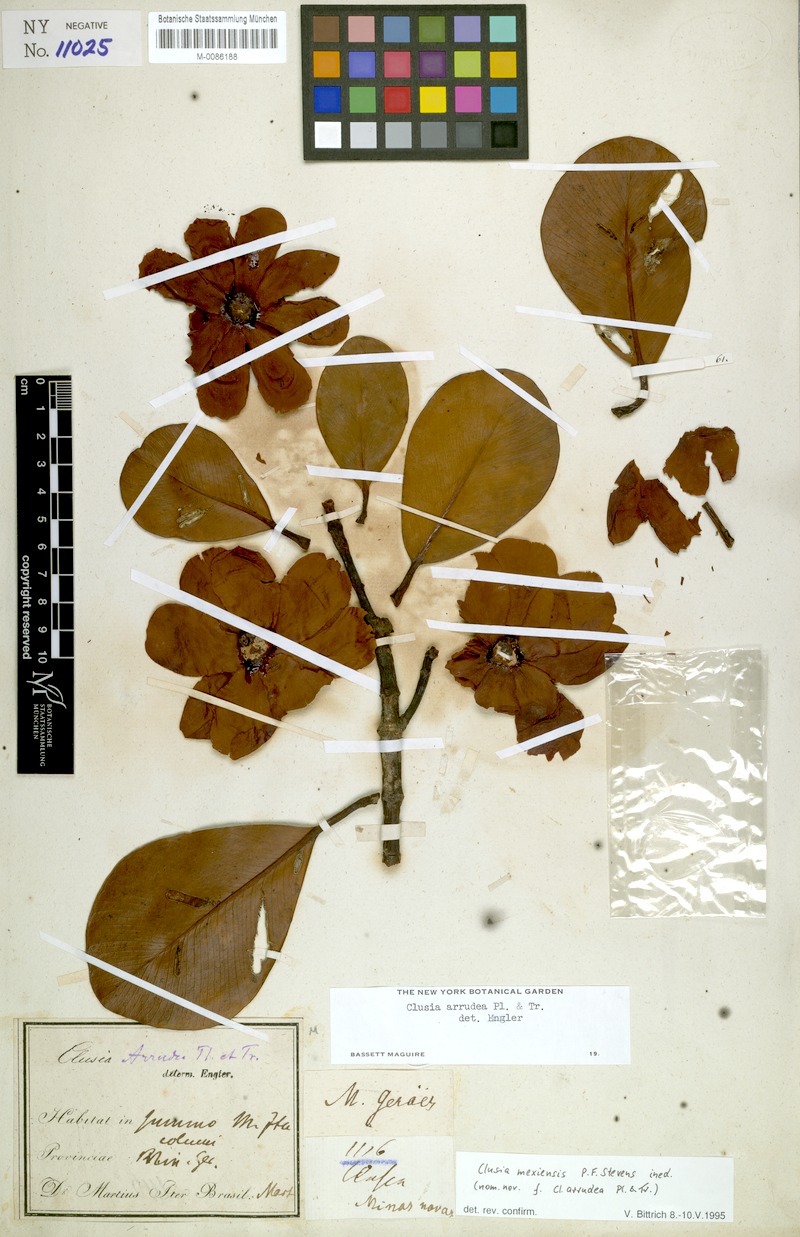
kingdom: Plantae
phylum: Tracheophyta
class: Magnoliopsida
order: Malpighiales
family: Clusiaceae
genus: Clusia
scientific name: Clusia mexiensis
